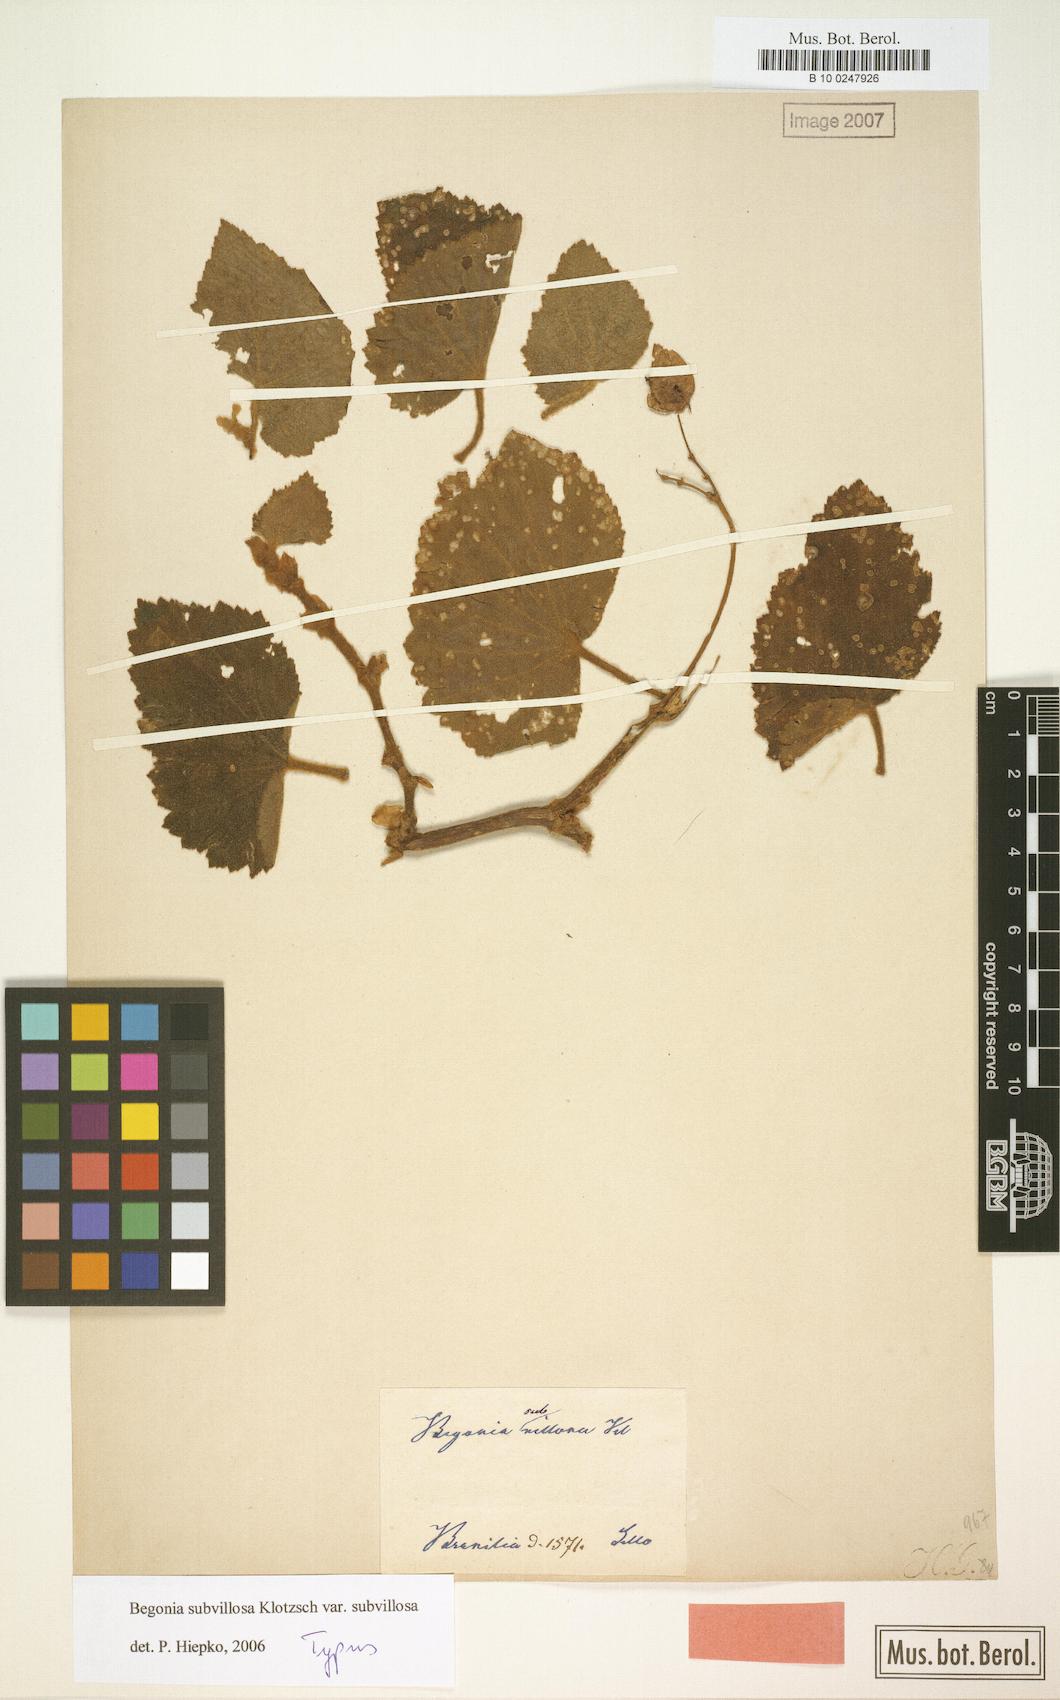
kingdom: Plantae
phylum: Tracheophyta
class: Magnoliopsida
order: Cucurbitales
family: Begoniaceae
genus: Begonia
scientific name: Begonia subvillosa
